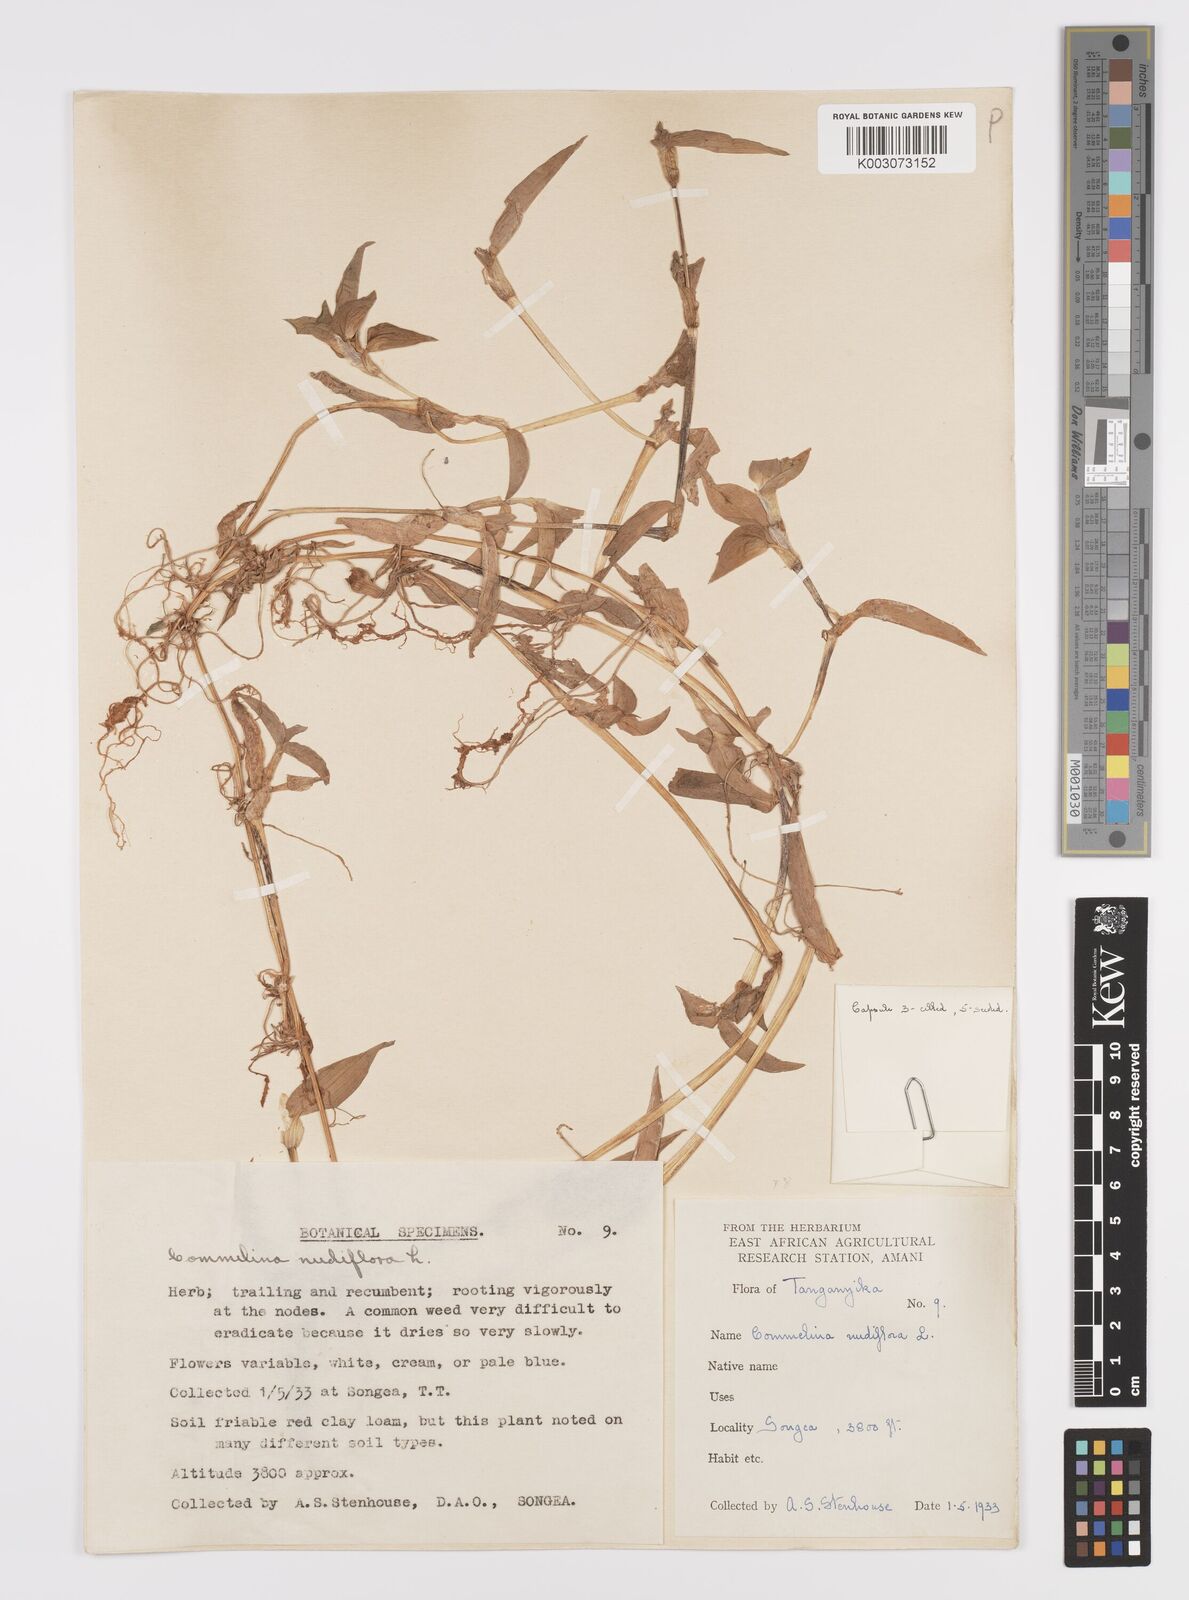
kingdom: Plantae
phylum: Tracheophyta
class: Liliopsida
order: Commelinales
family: Commelinaceae
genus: Commelina
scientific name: Commelina diffusa
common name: Climbing dayflower
